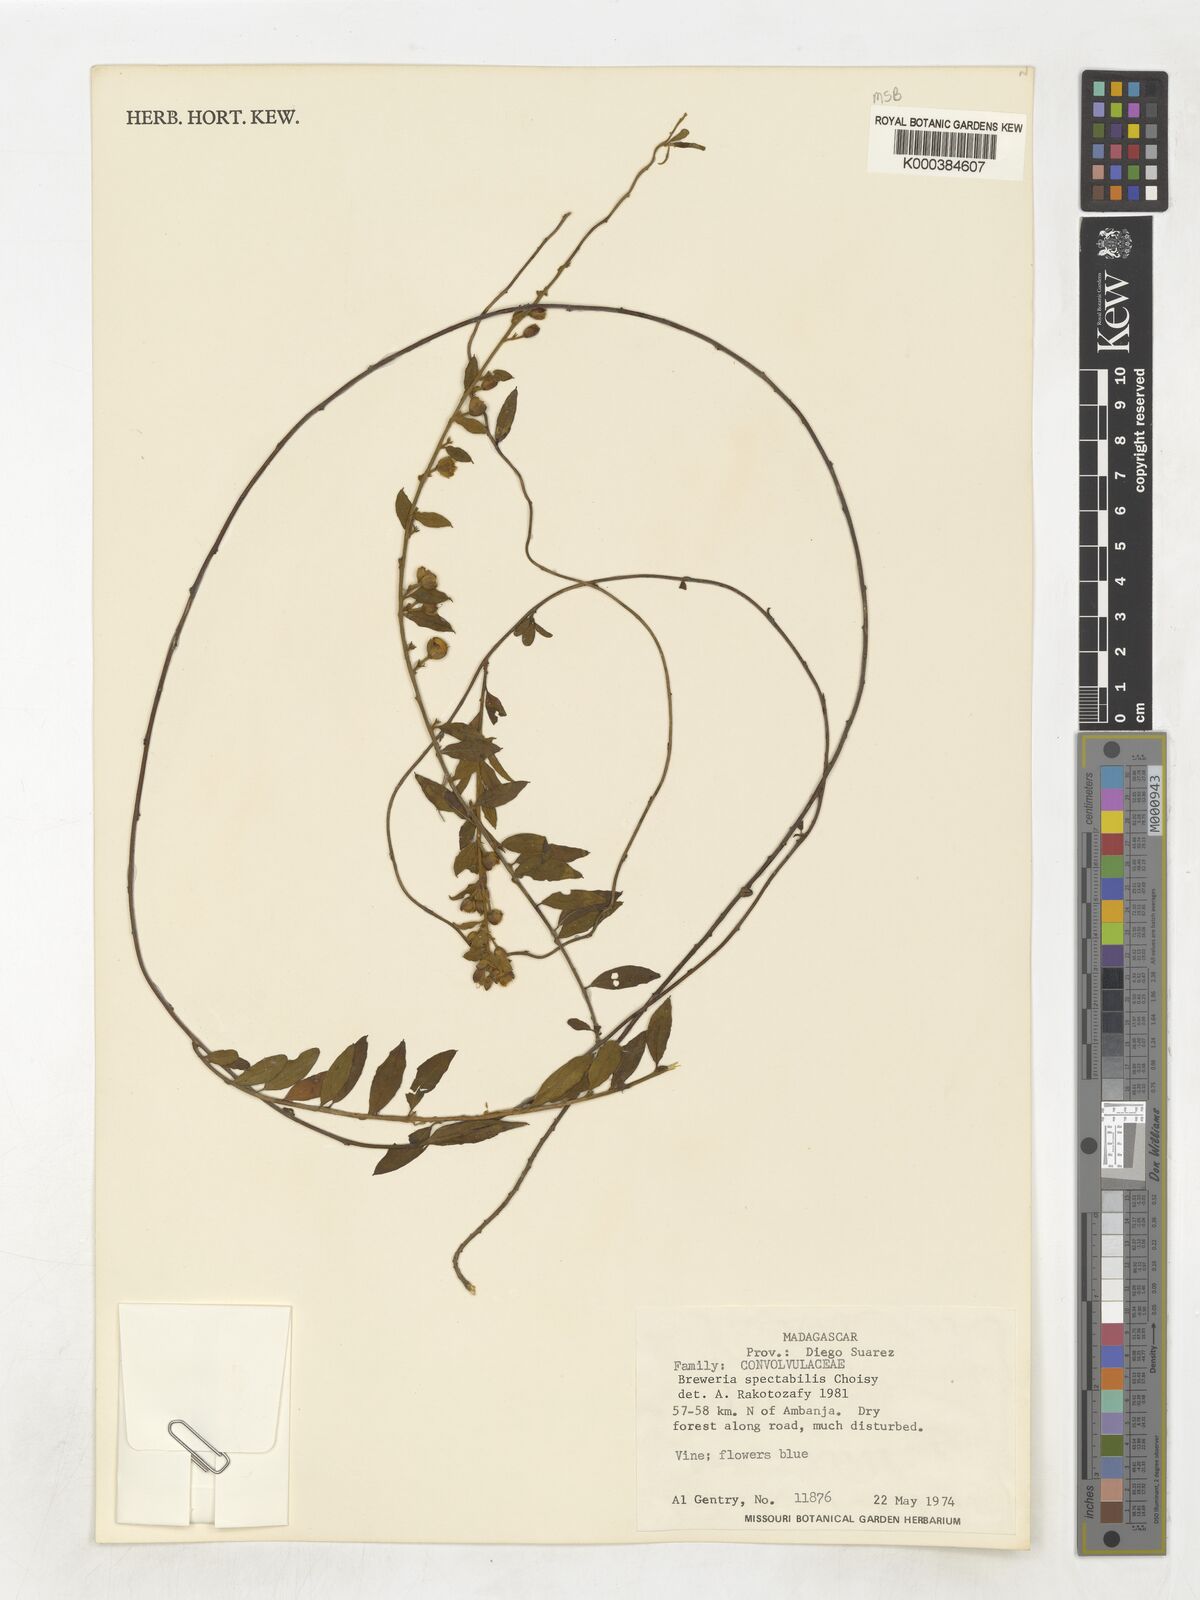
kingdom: Plantae
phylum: Tracheophyta
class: Magnoliopsida
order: Solanales
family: Convolvulaceae
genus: Bonamia
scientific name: Bonamia spectabilis
